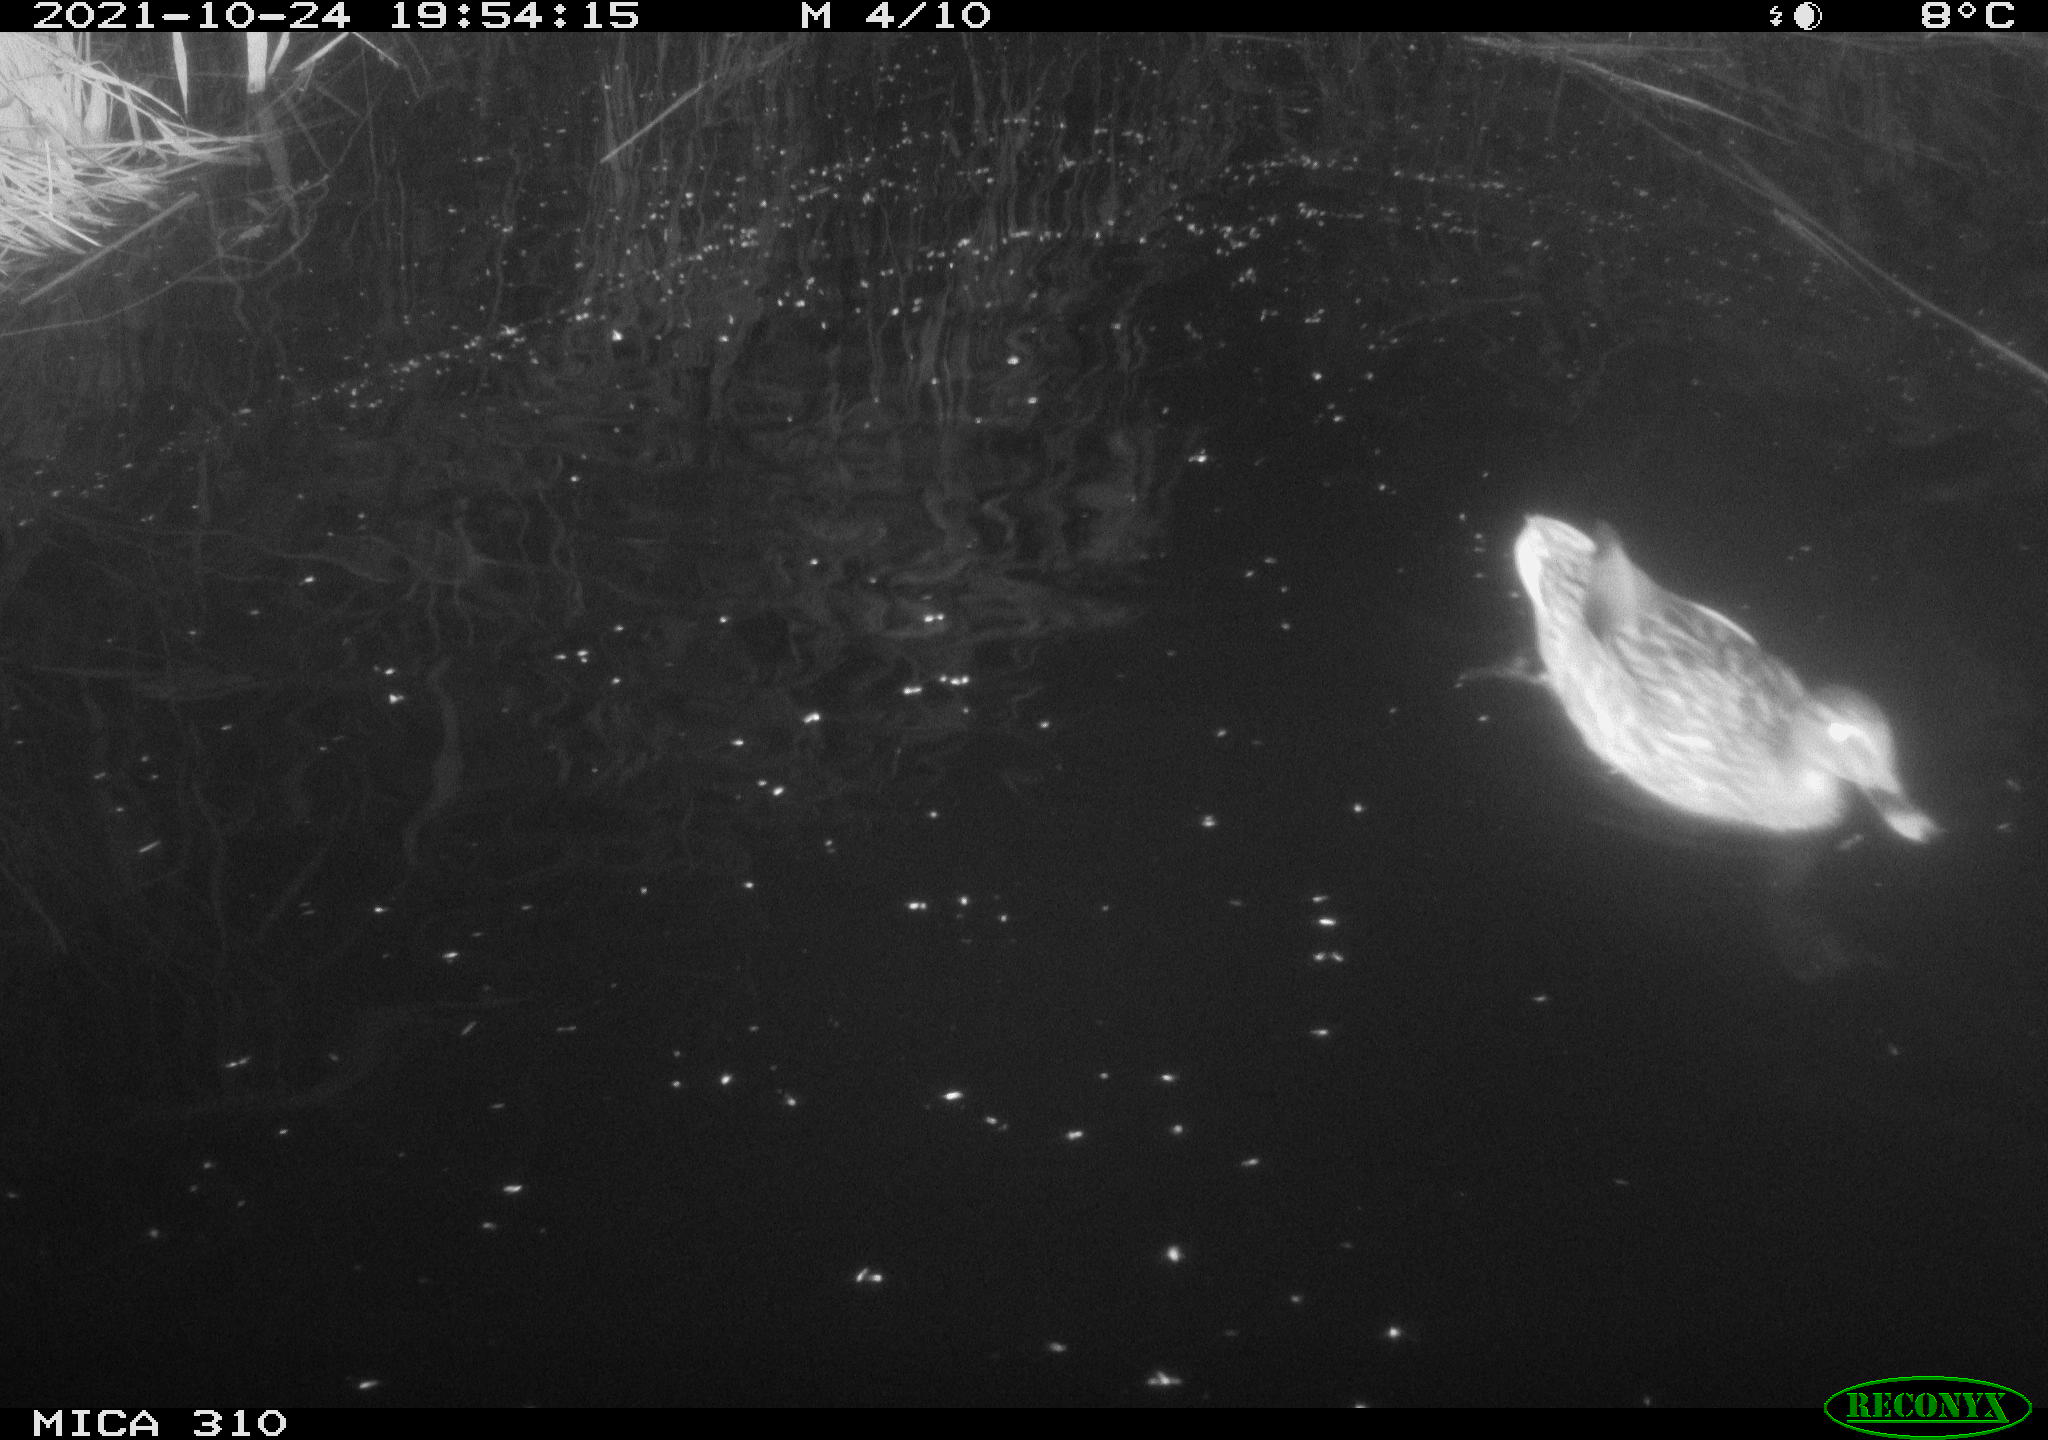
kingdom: Animalia
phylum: Chordata
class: Aves
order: Anseriformes
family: Anatidae
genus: Anas
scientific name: Anas platyrhynchos
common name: Mallard
